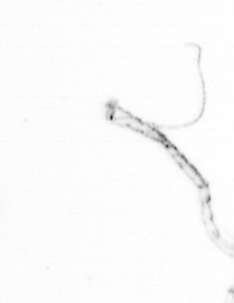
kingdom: Chromista
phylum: Ochrophyta
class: Bacillariophyceae
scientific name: Bacillariophyceae
